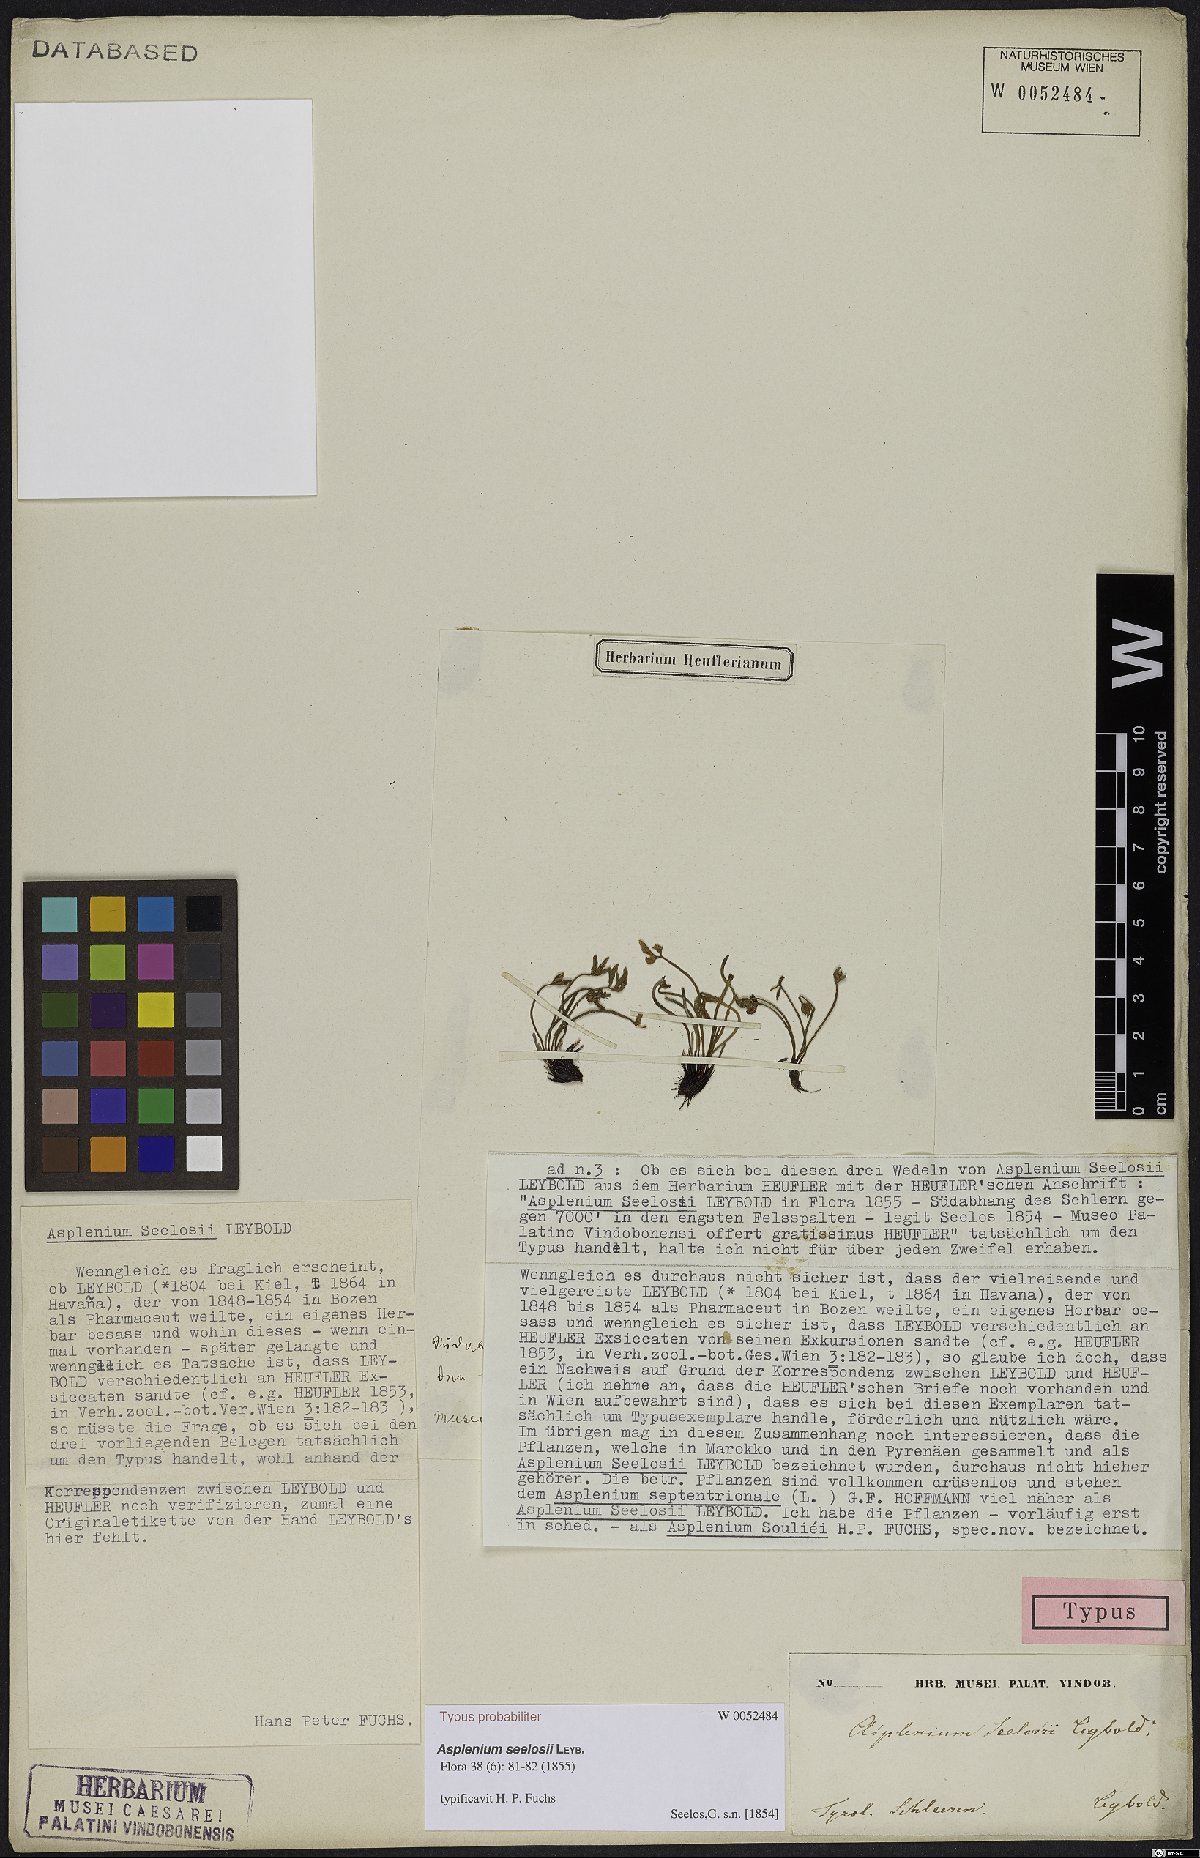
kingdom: Plantae
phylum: Tracheophyta
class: Polypodiopsida
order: Polypodiales
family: Aspleniaceae
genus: Asplenium
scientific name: Asplenium seelosii
